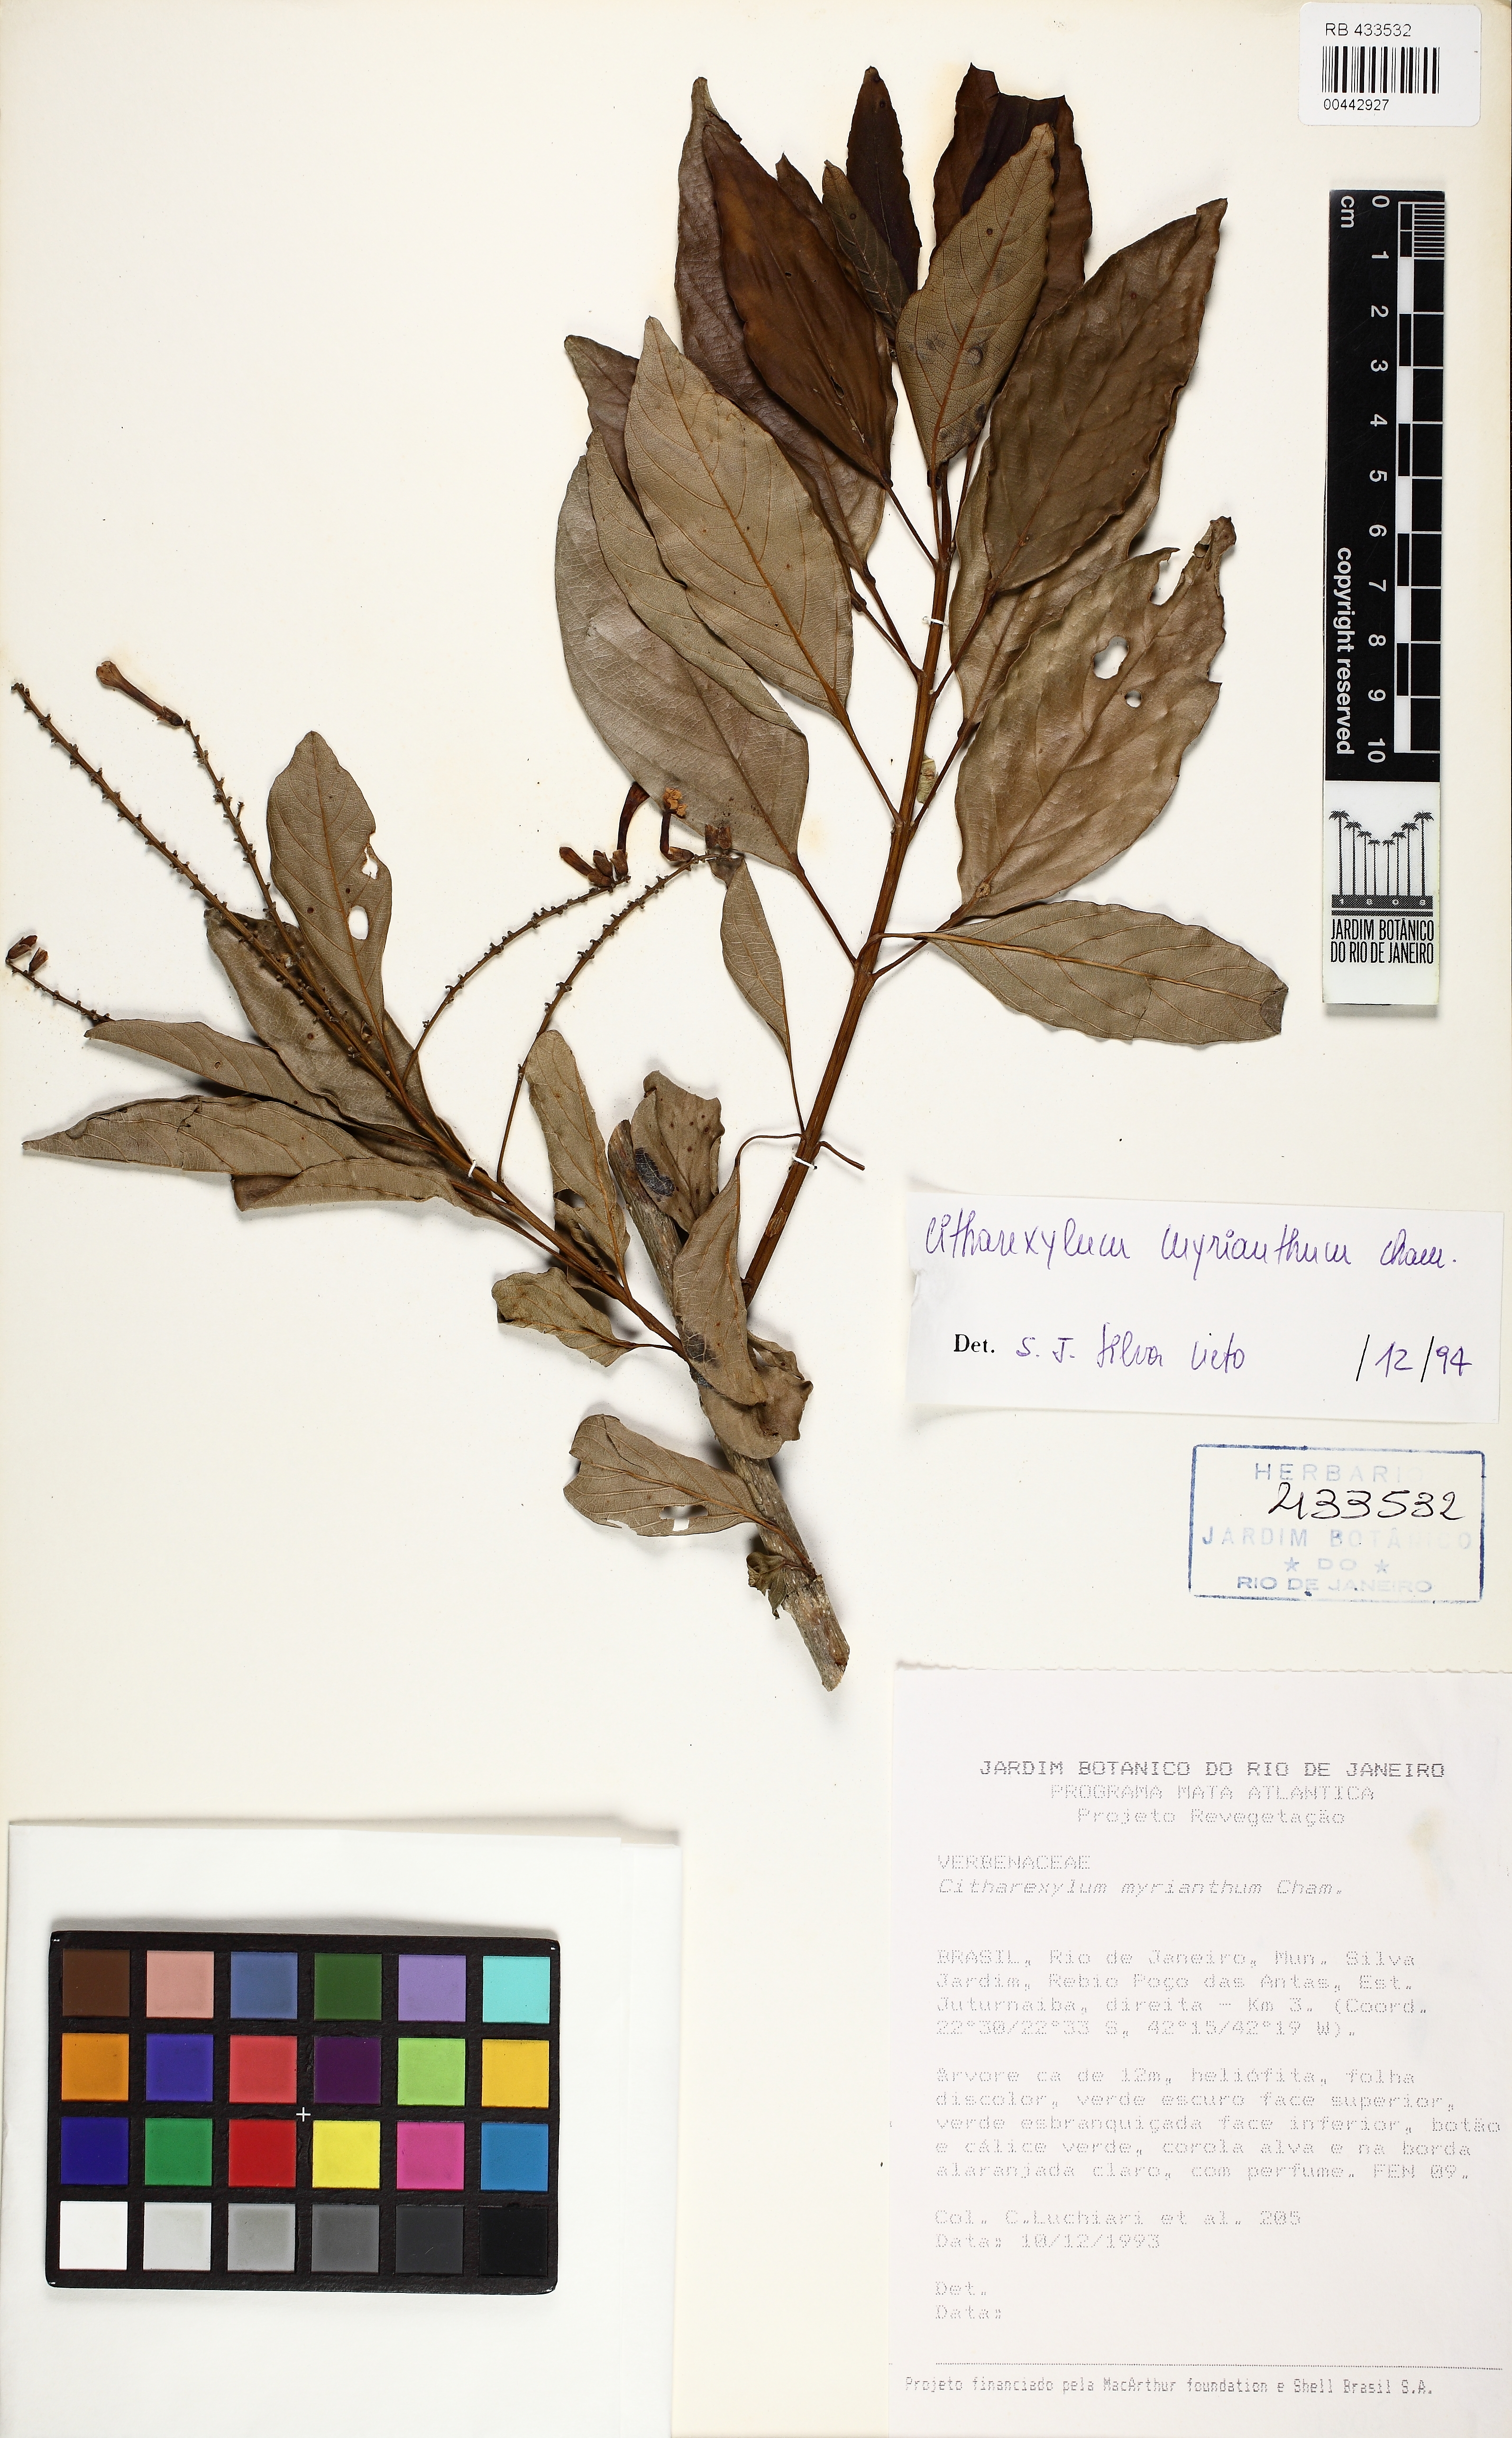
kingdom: Plantae
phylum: Tracheophyta
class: Magnoliopsida
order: Lamiales
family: Verbenaceae
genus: Citharexylum
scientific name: Citharexylum myrianthum
